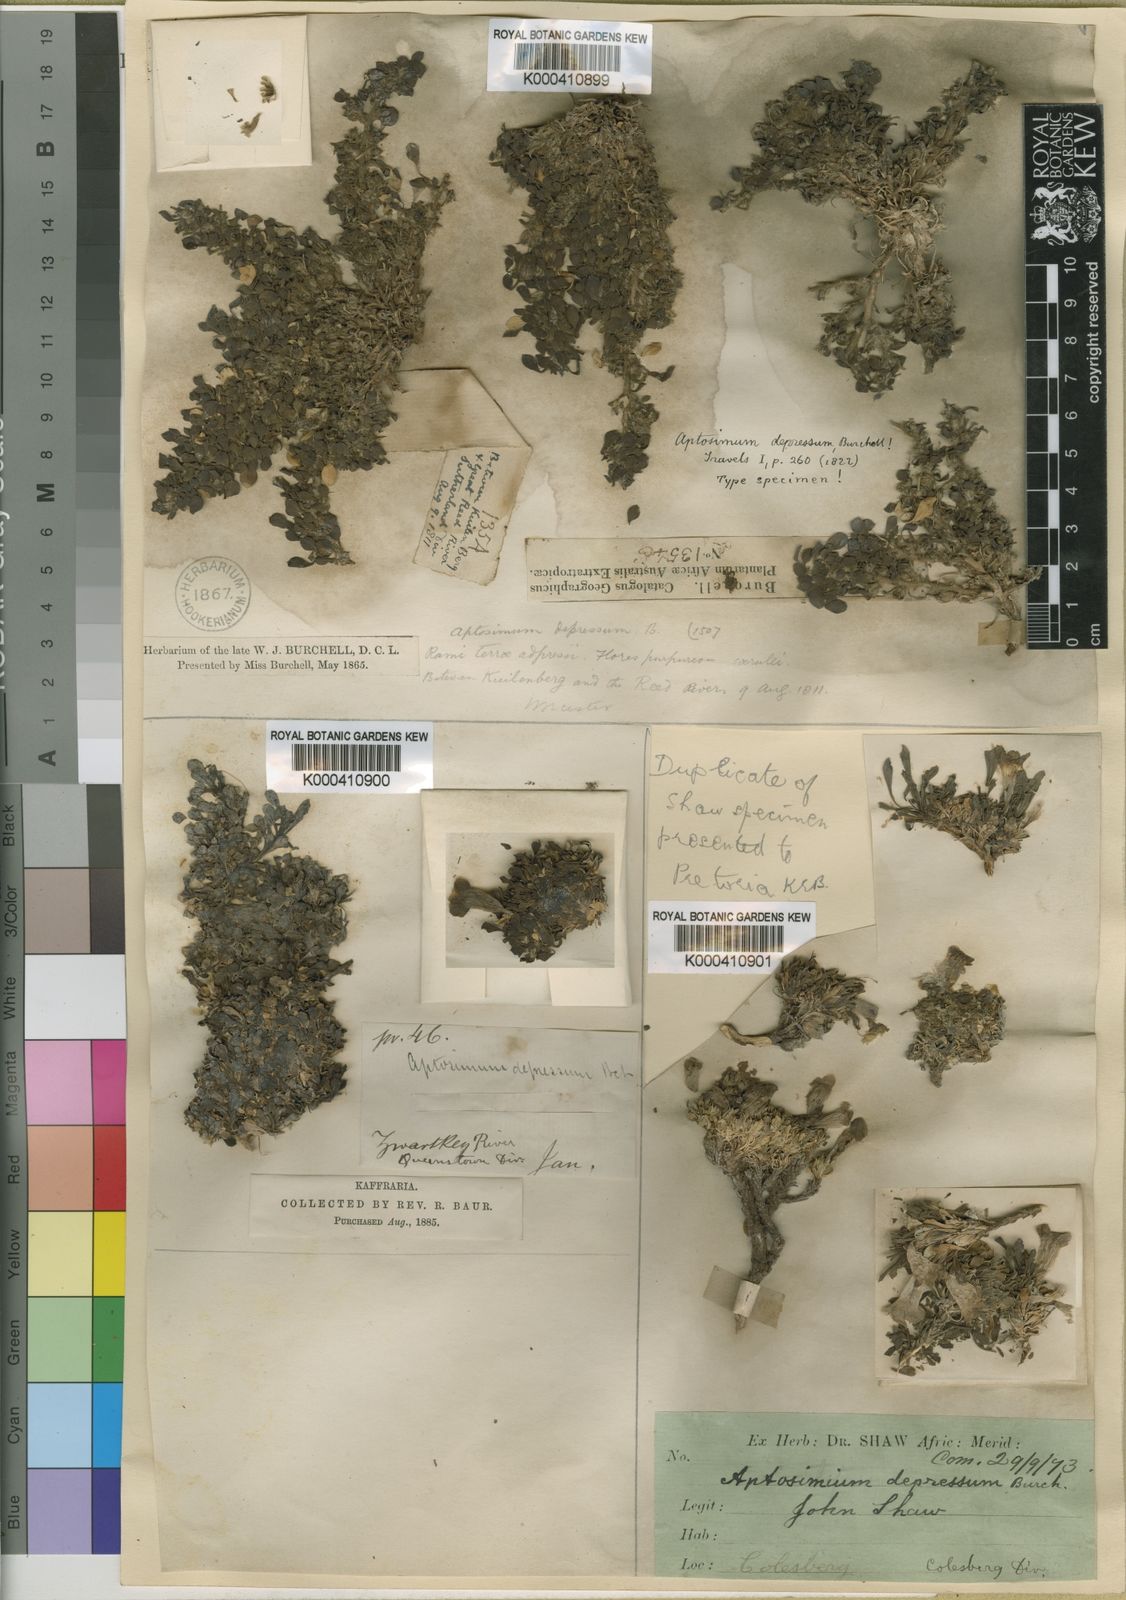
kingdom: Plantae
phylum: Tracheophyta
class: Magnoliopsida
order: Lamiales
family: Scrophulariaceae
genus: Aptosimum
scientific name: Aptosimum procumbens
